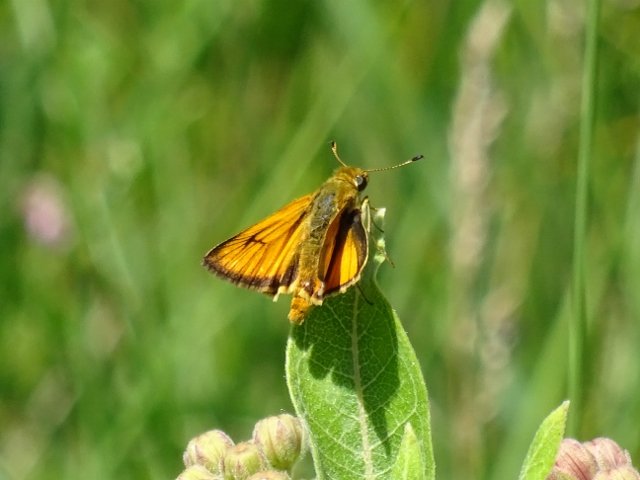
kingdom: Animalia
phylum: Arthropoda
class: Insecta
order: Lepidoptera
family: Hesperiidae
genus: Atrytone
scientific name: Atrytone delaware
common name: Delaware Skipper
